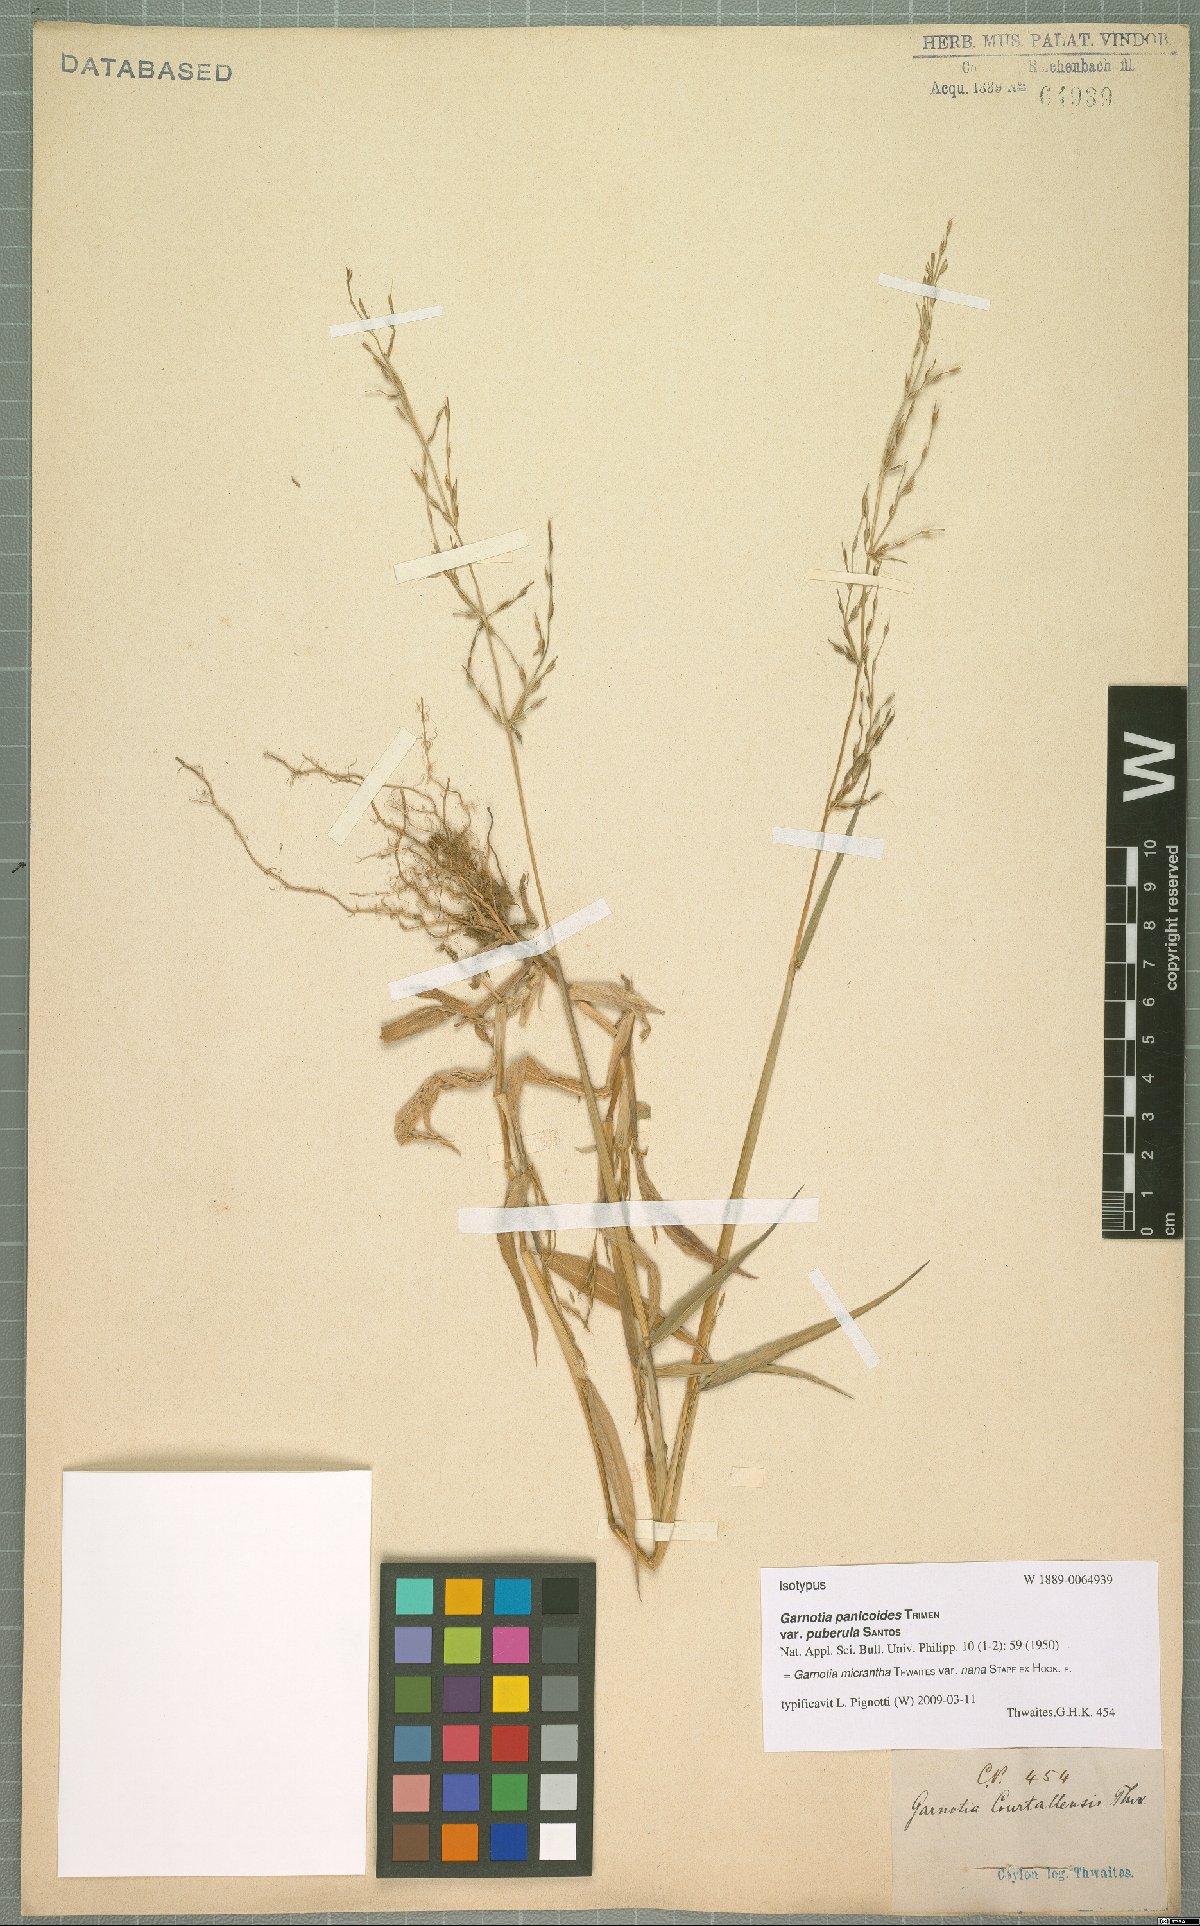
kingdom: Plantae
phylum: Tracheophyta
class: Liliopsida
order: Poales
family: Poaceae
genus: Garnotia
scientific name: Garnotia micrantha
